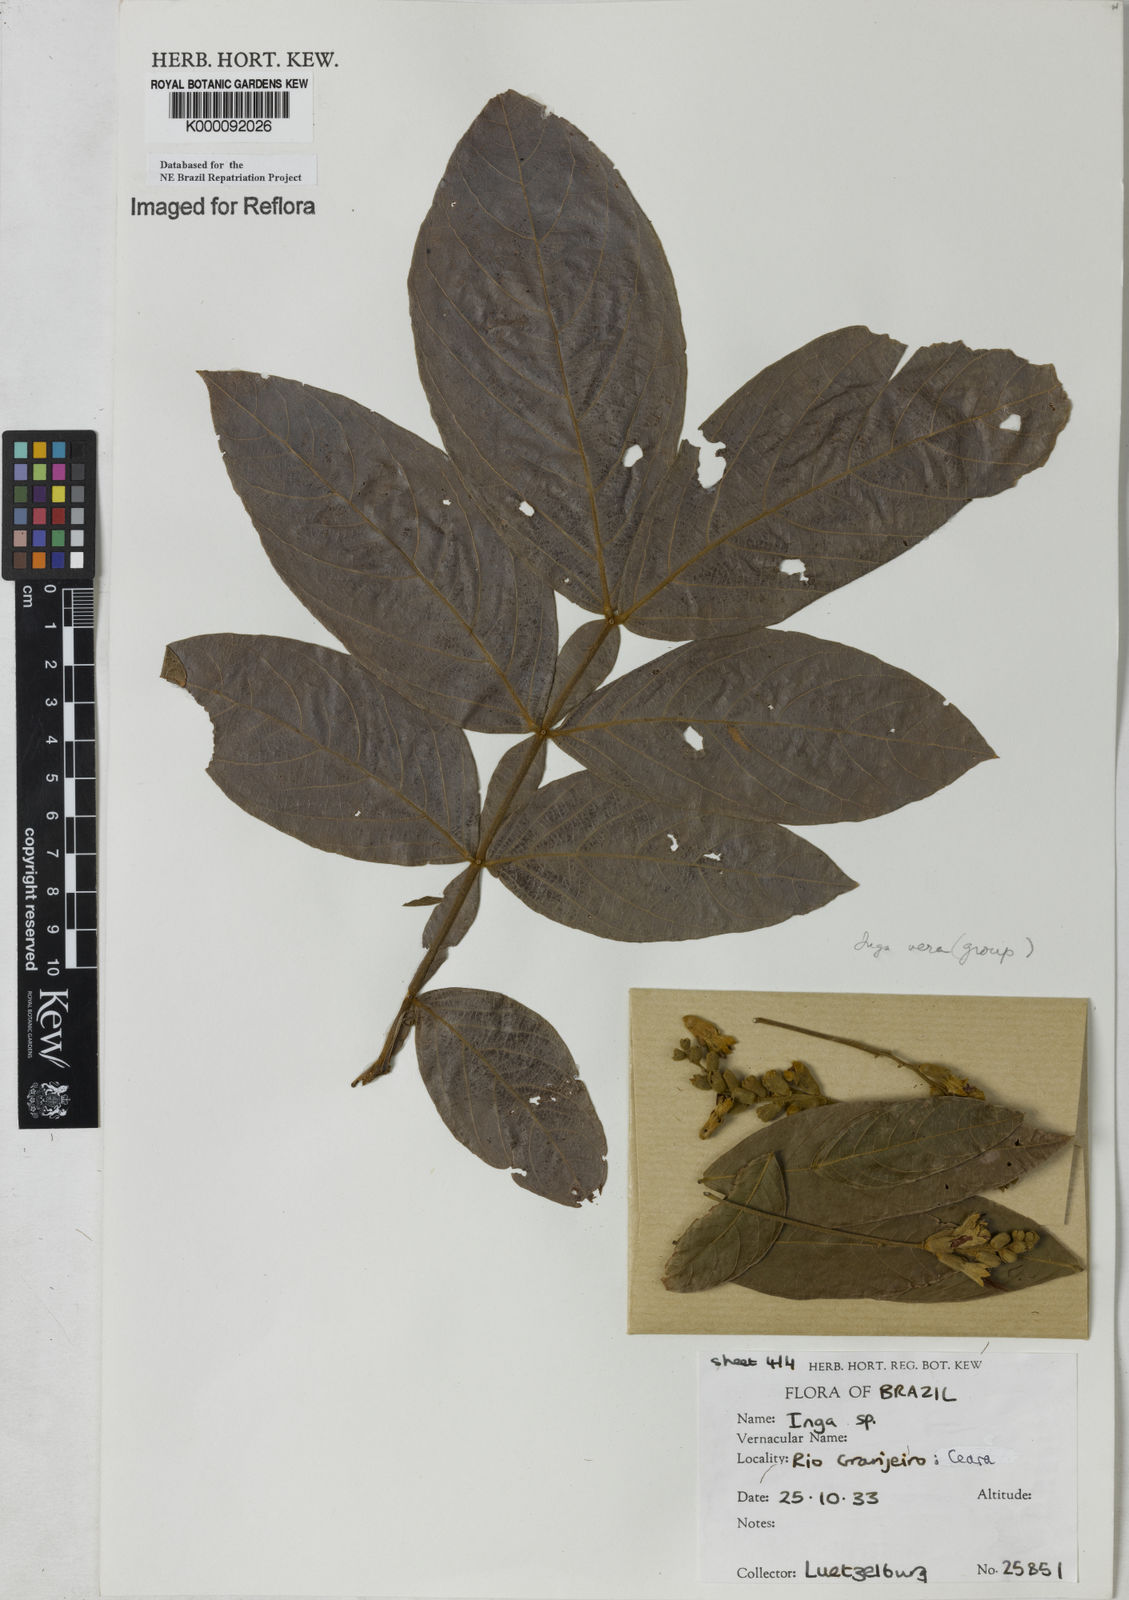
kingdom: Plantae
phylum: Tracheophyta
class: Magnoliopsida
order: Fabales
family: Fabaceae
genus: Inga
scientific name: Inga affinis
